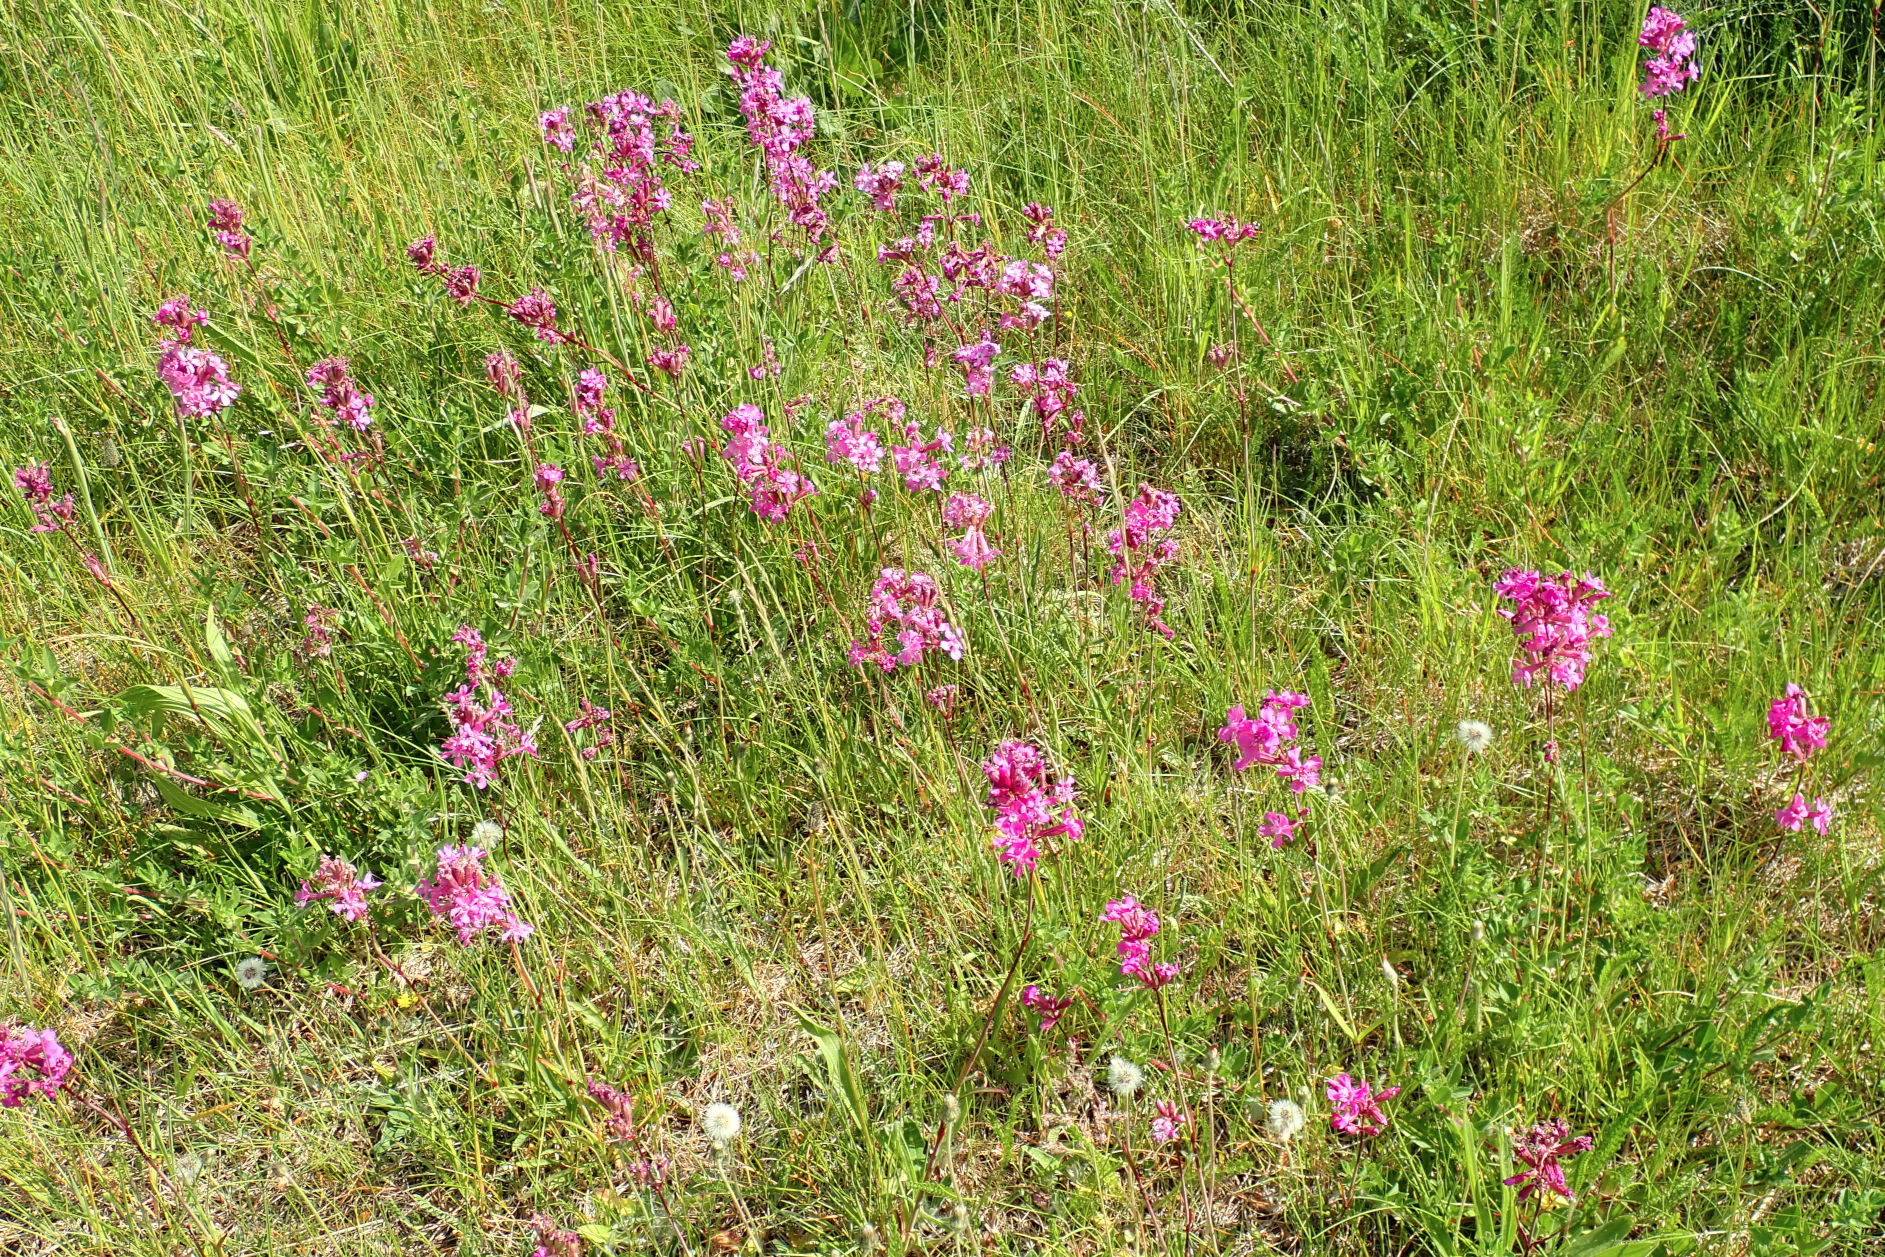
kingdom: Plantae
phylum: Tracheophyta
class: Magnoliopsida
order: Caryophyllales
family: Caryophyllaceae
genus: Viscaria
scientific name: Viscaria vulgaris
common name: Tjærenellike
